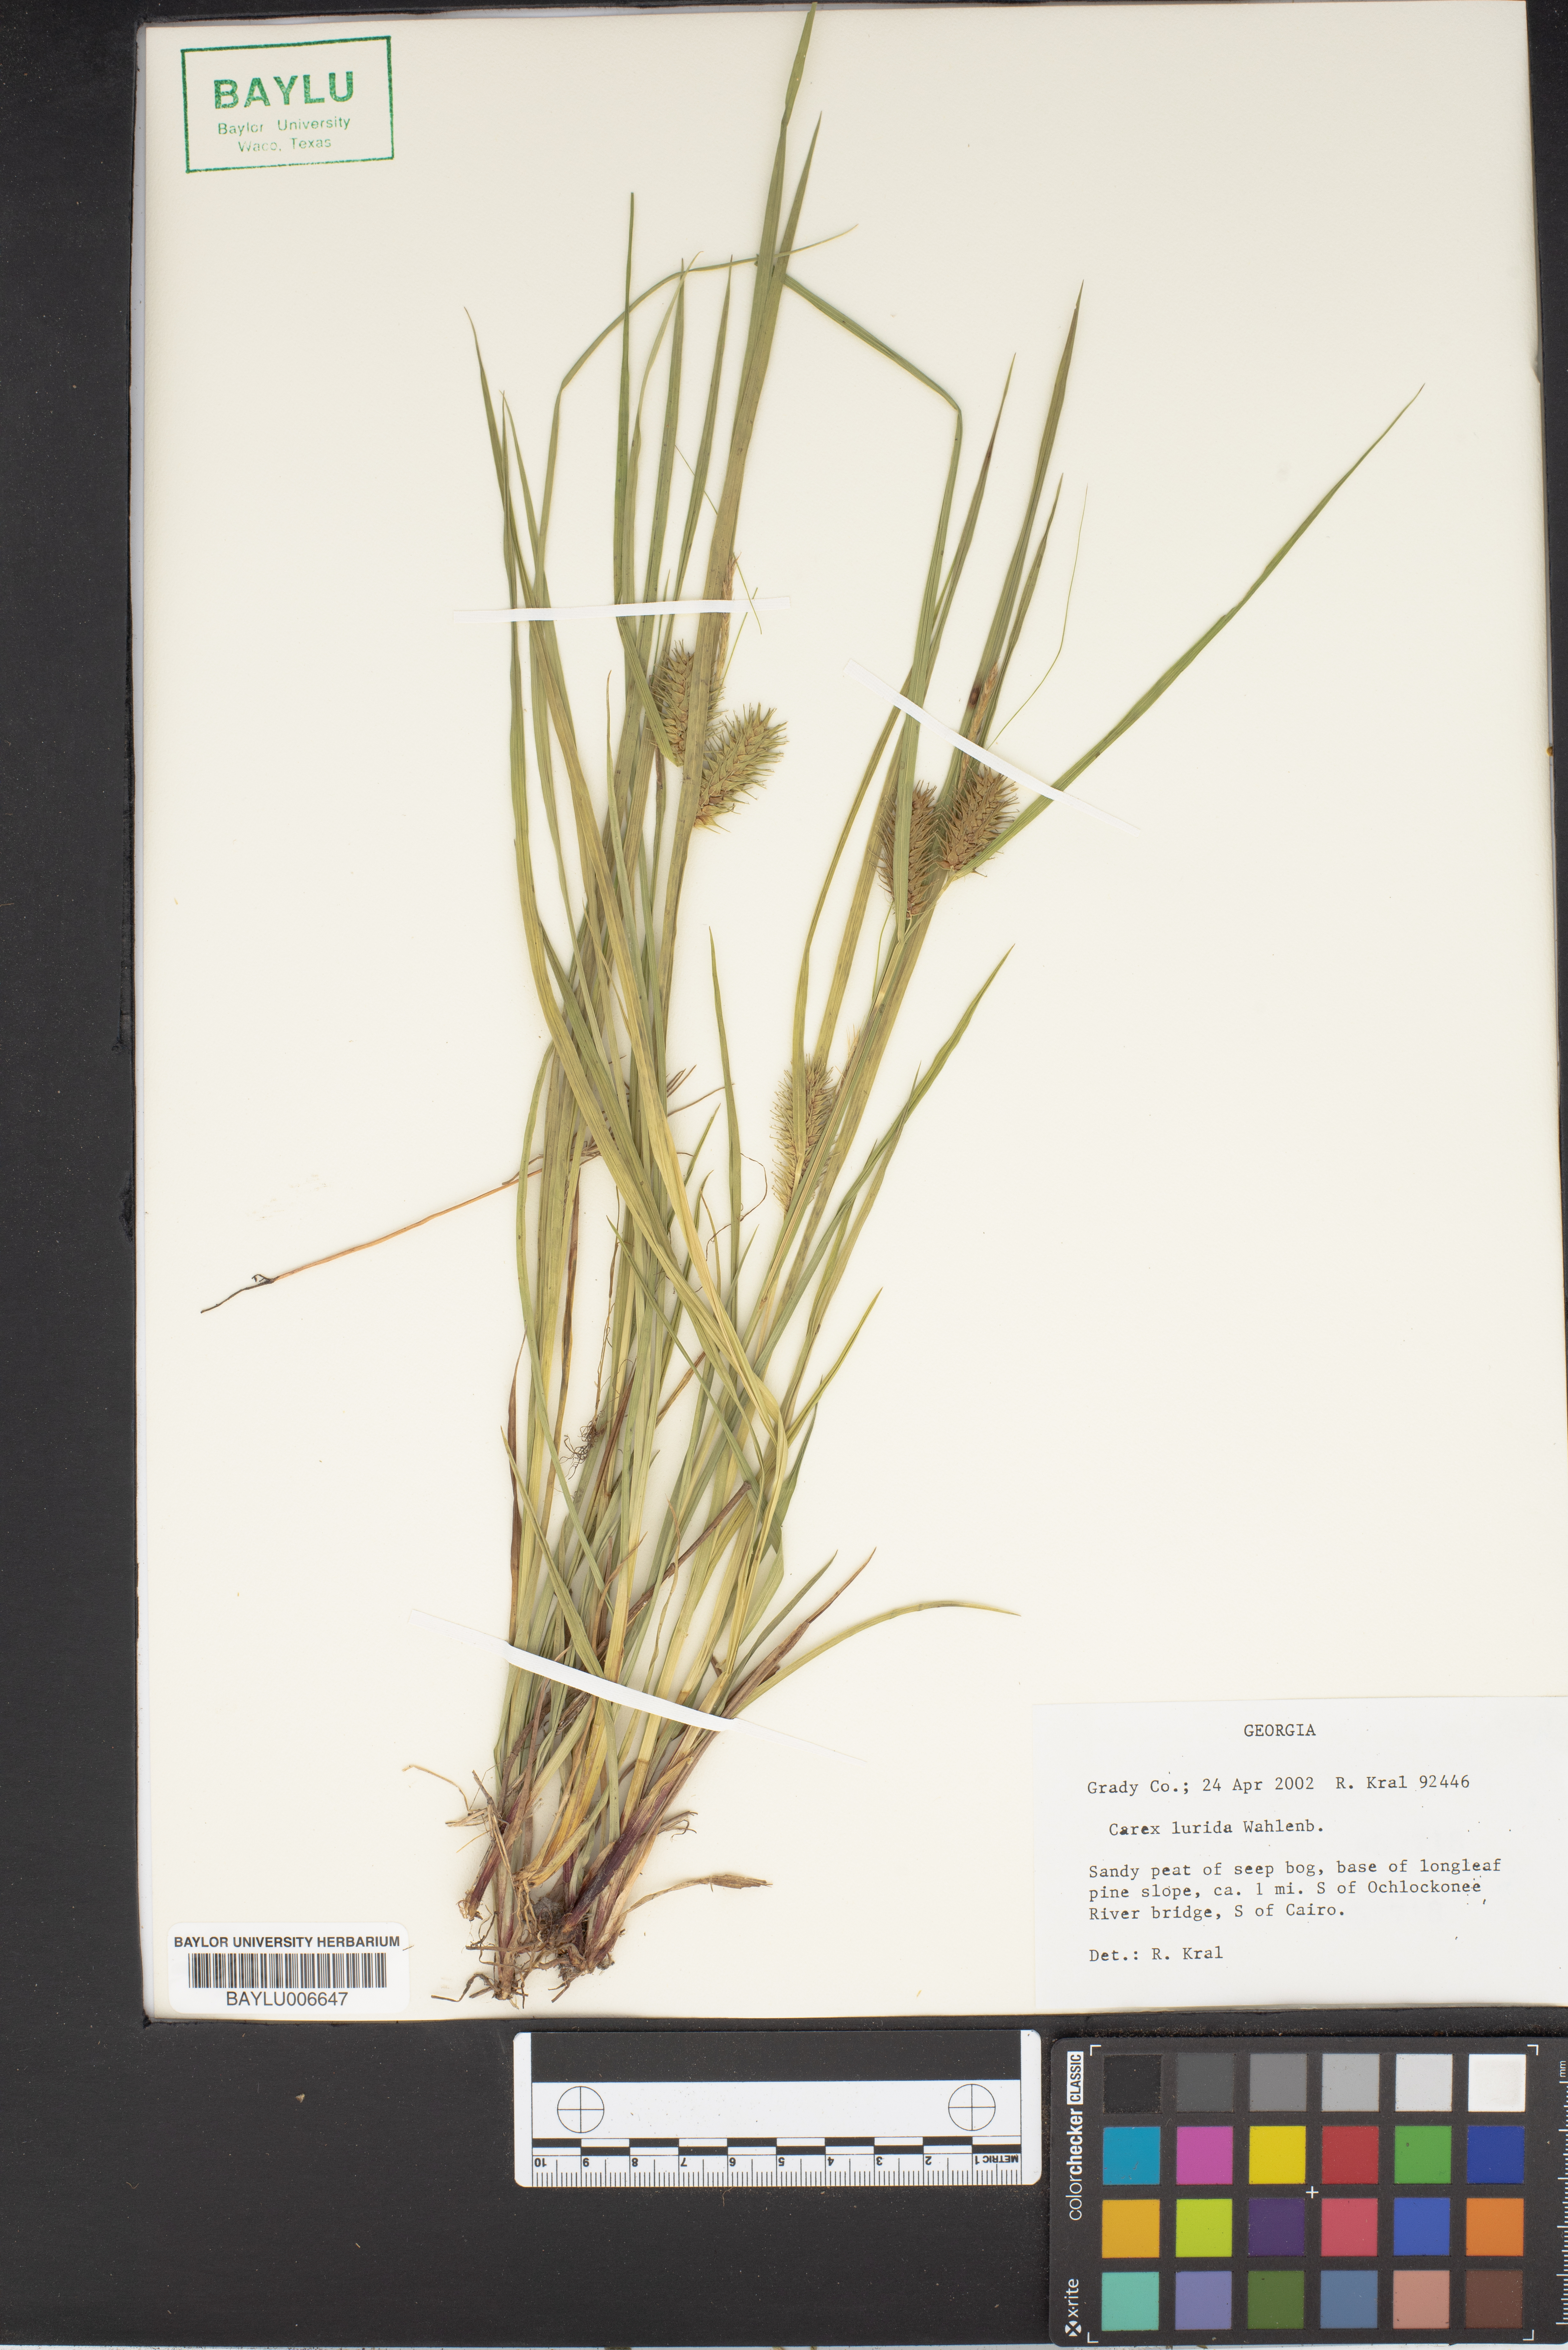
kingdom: Plantae
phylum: Tracheophyta
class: Liliopsida
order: Poales
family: Cyperaceae
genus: Carex
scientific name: Carex lurida
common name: Sallow sedge
